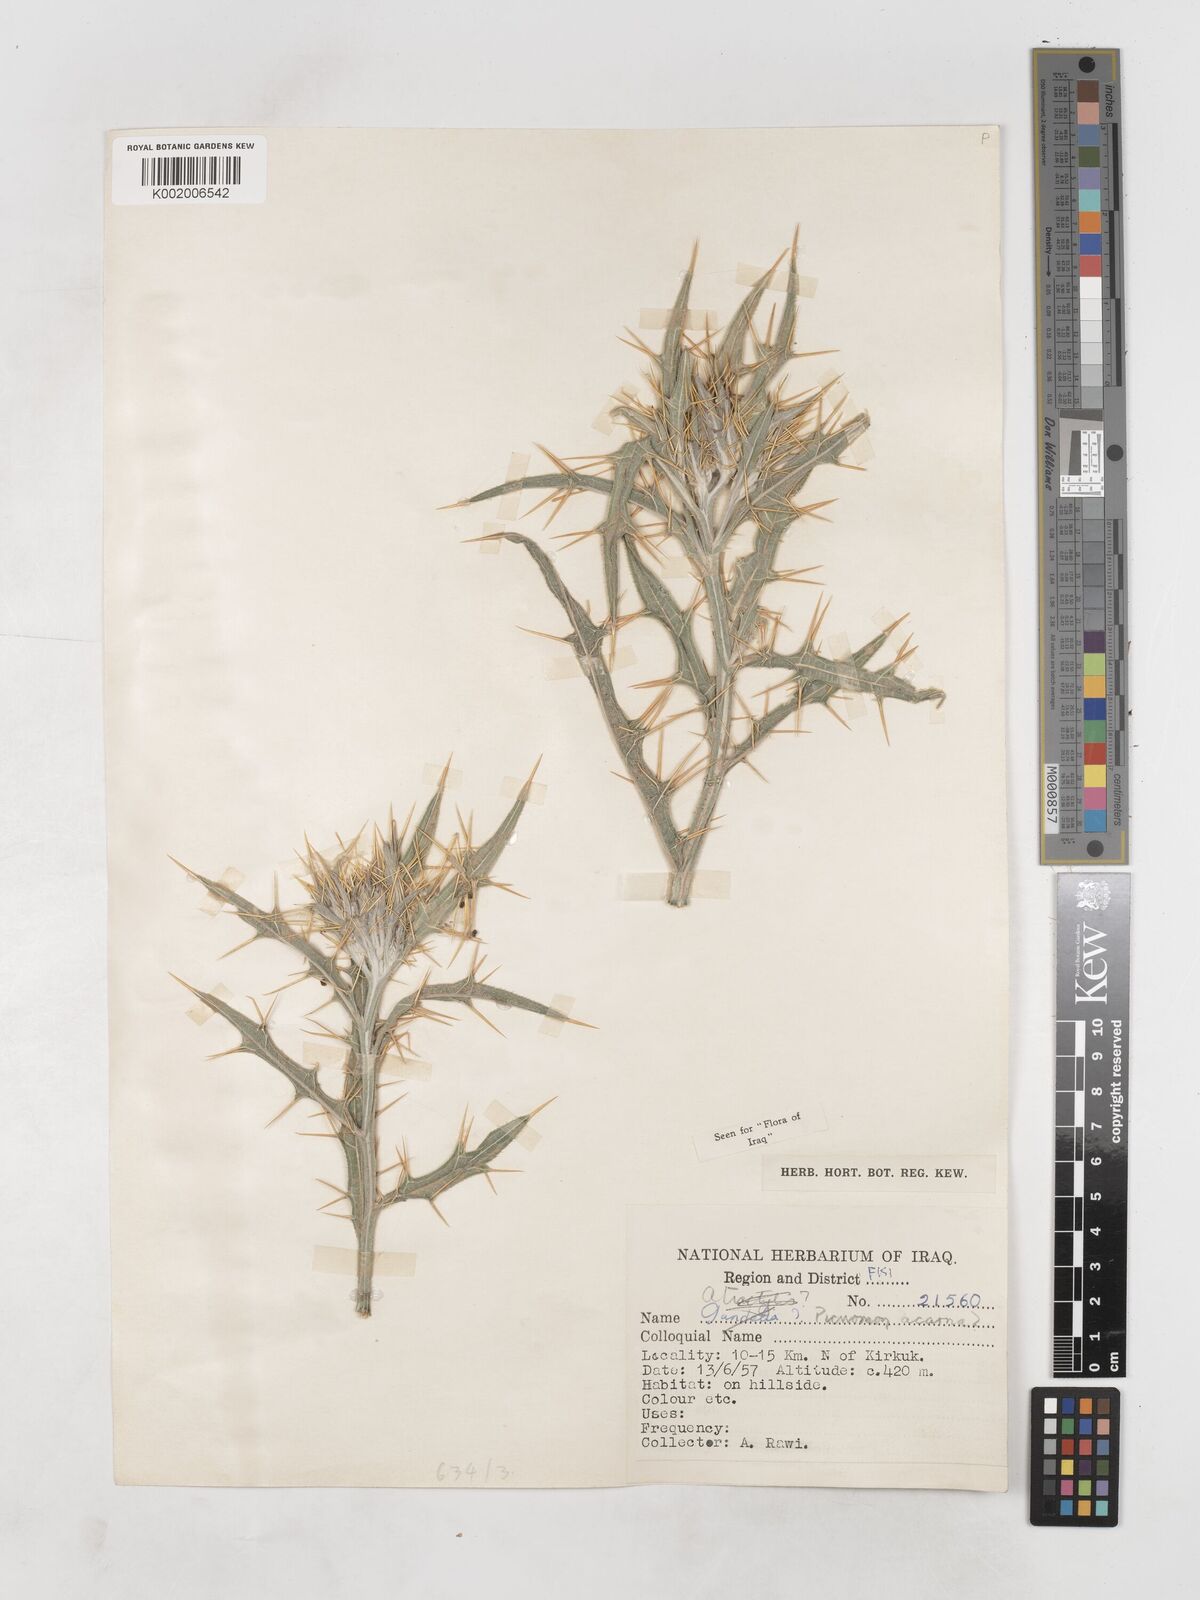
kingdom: Plantae
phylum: Tracheophyta
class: Magnoliopsida
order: Asterales
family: Asteraceae
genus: Picnomon
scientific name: Picnomon acarna
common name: Soldier thistle
